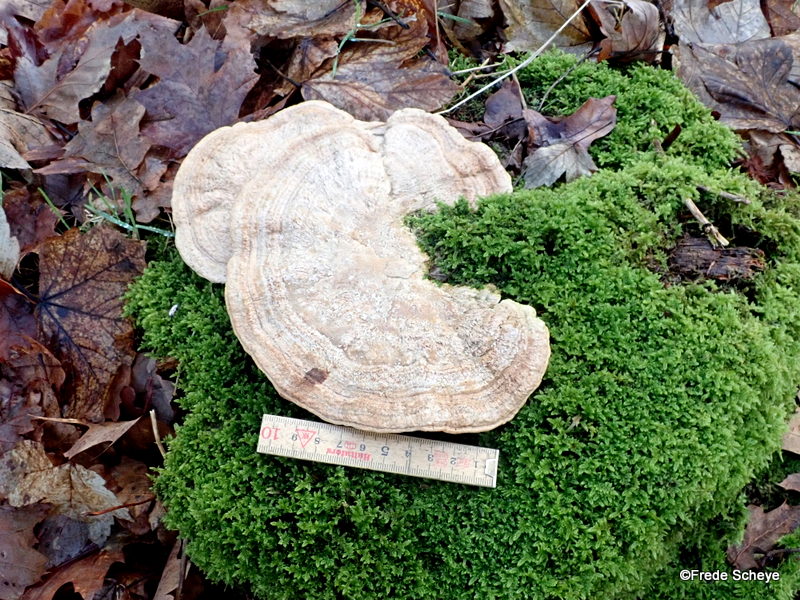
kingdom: Fungi
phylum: Basidiomycota
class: Agaricomycetes
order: Polyporales
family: Fomitopsidaceae
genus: Daedalea
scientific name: Daedalea quercina
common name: ege-labyrintsvamp
